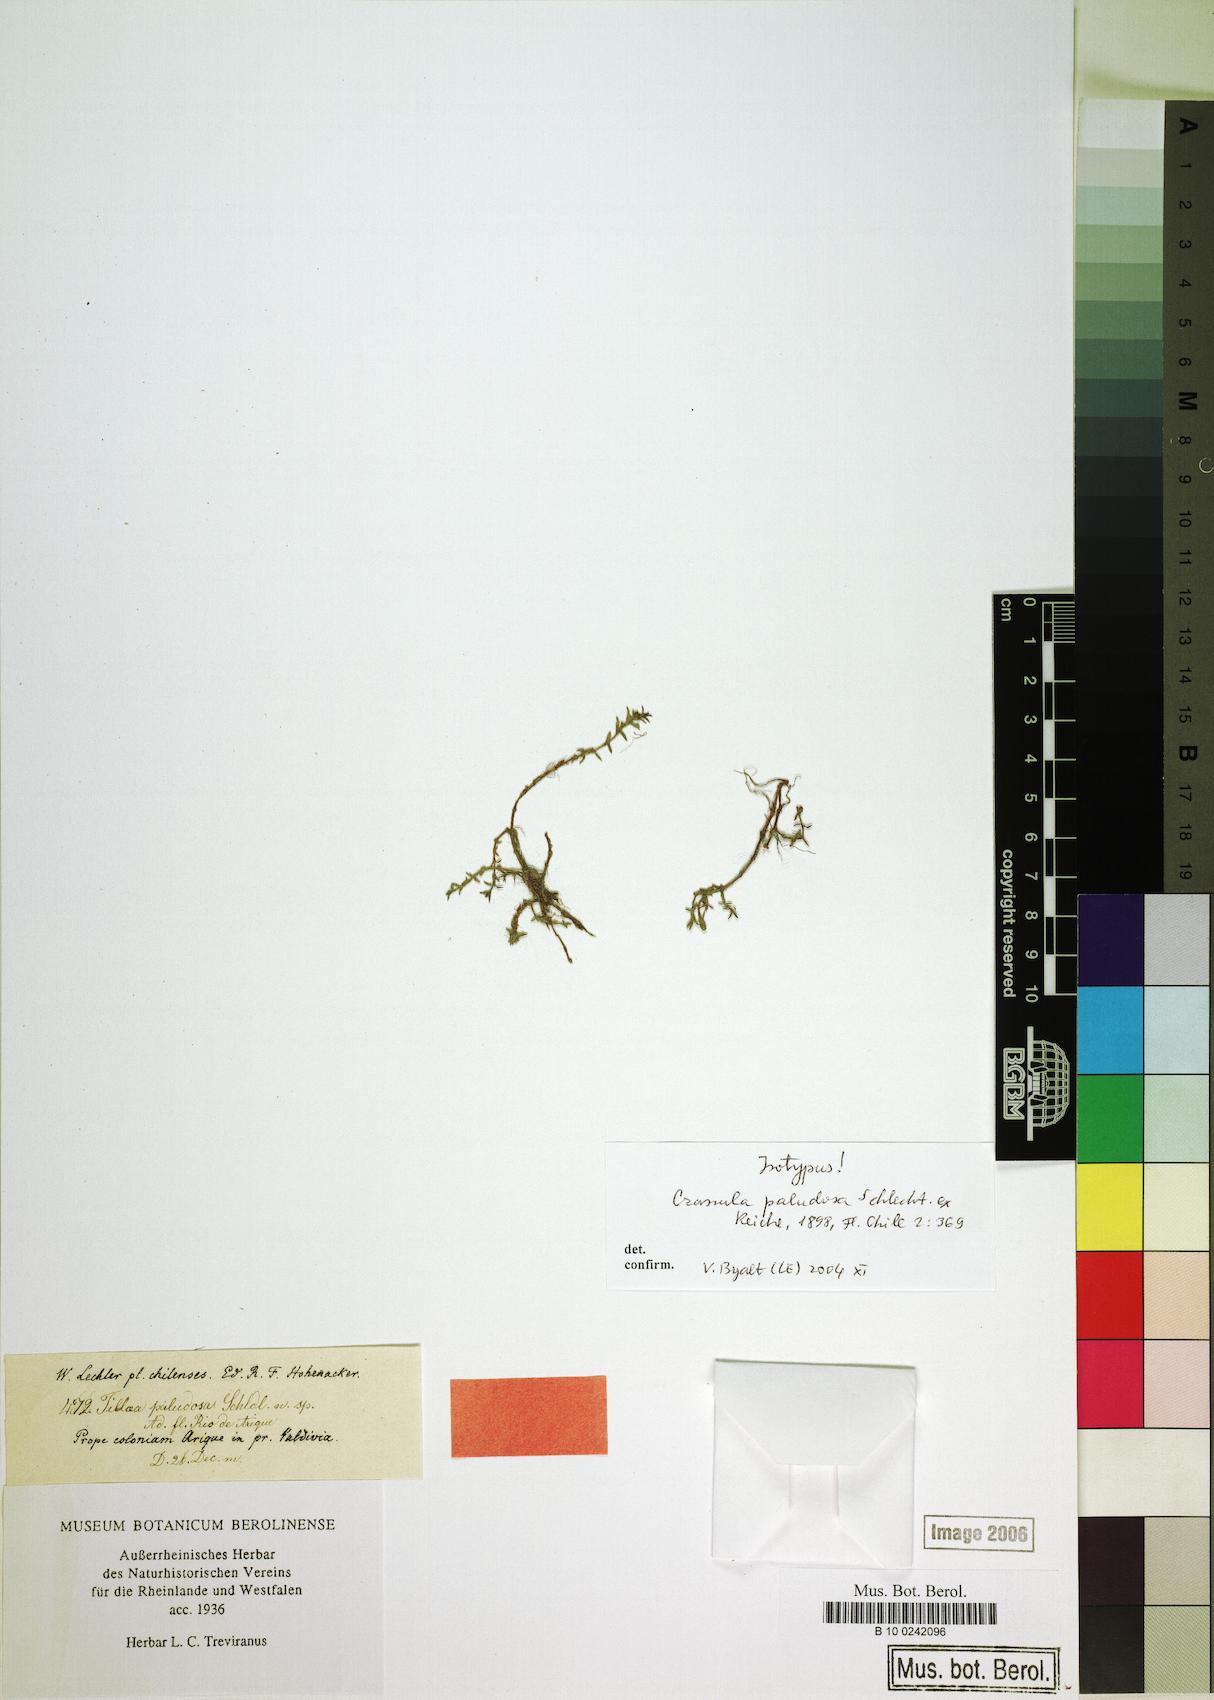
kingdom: Plantae
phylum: Tracheophyta
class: Magnoliopsida
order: Saxifragales
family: Crassulaceae
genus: Crassula
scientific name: Crassula peduncularis
